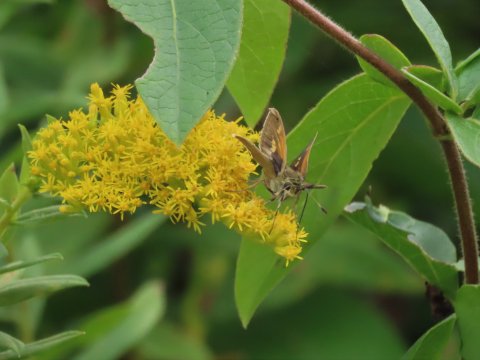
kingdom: Animalia
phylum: Arthropoda
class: Insecta
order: Lepidoptera
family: Hesperiidae
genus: Polites
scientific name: Polites themistocles
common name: Tawny-edged Skipper
